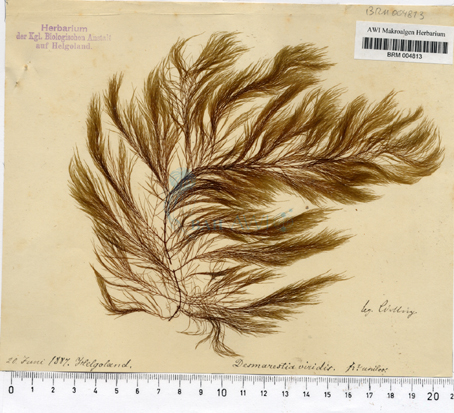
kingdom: Chromista
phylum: Ochrophyta
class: Phaeophyceae
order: Desmarestiales
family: Desmarestiaceae
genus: Desmarestia
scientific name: Desmarestia viridis
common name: Stringy acid kelp
